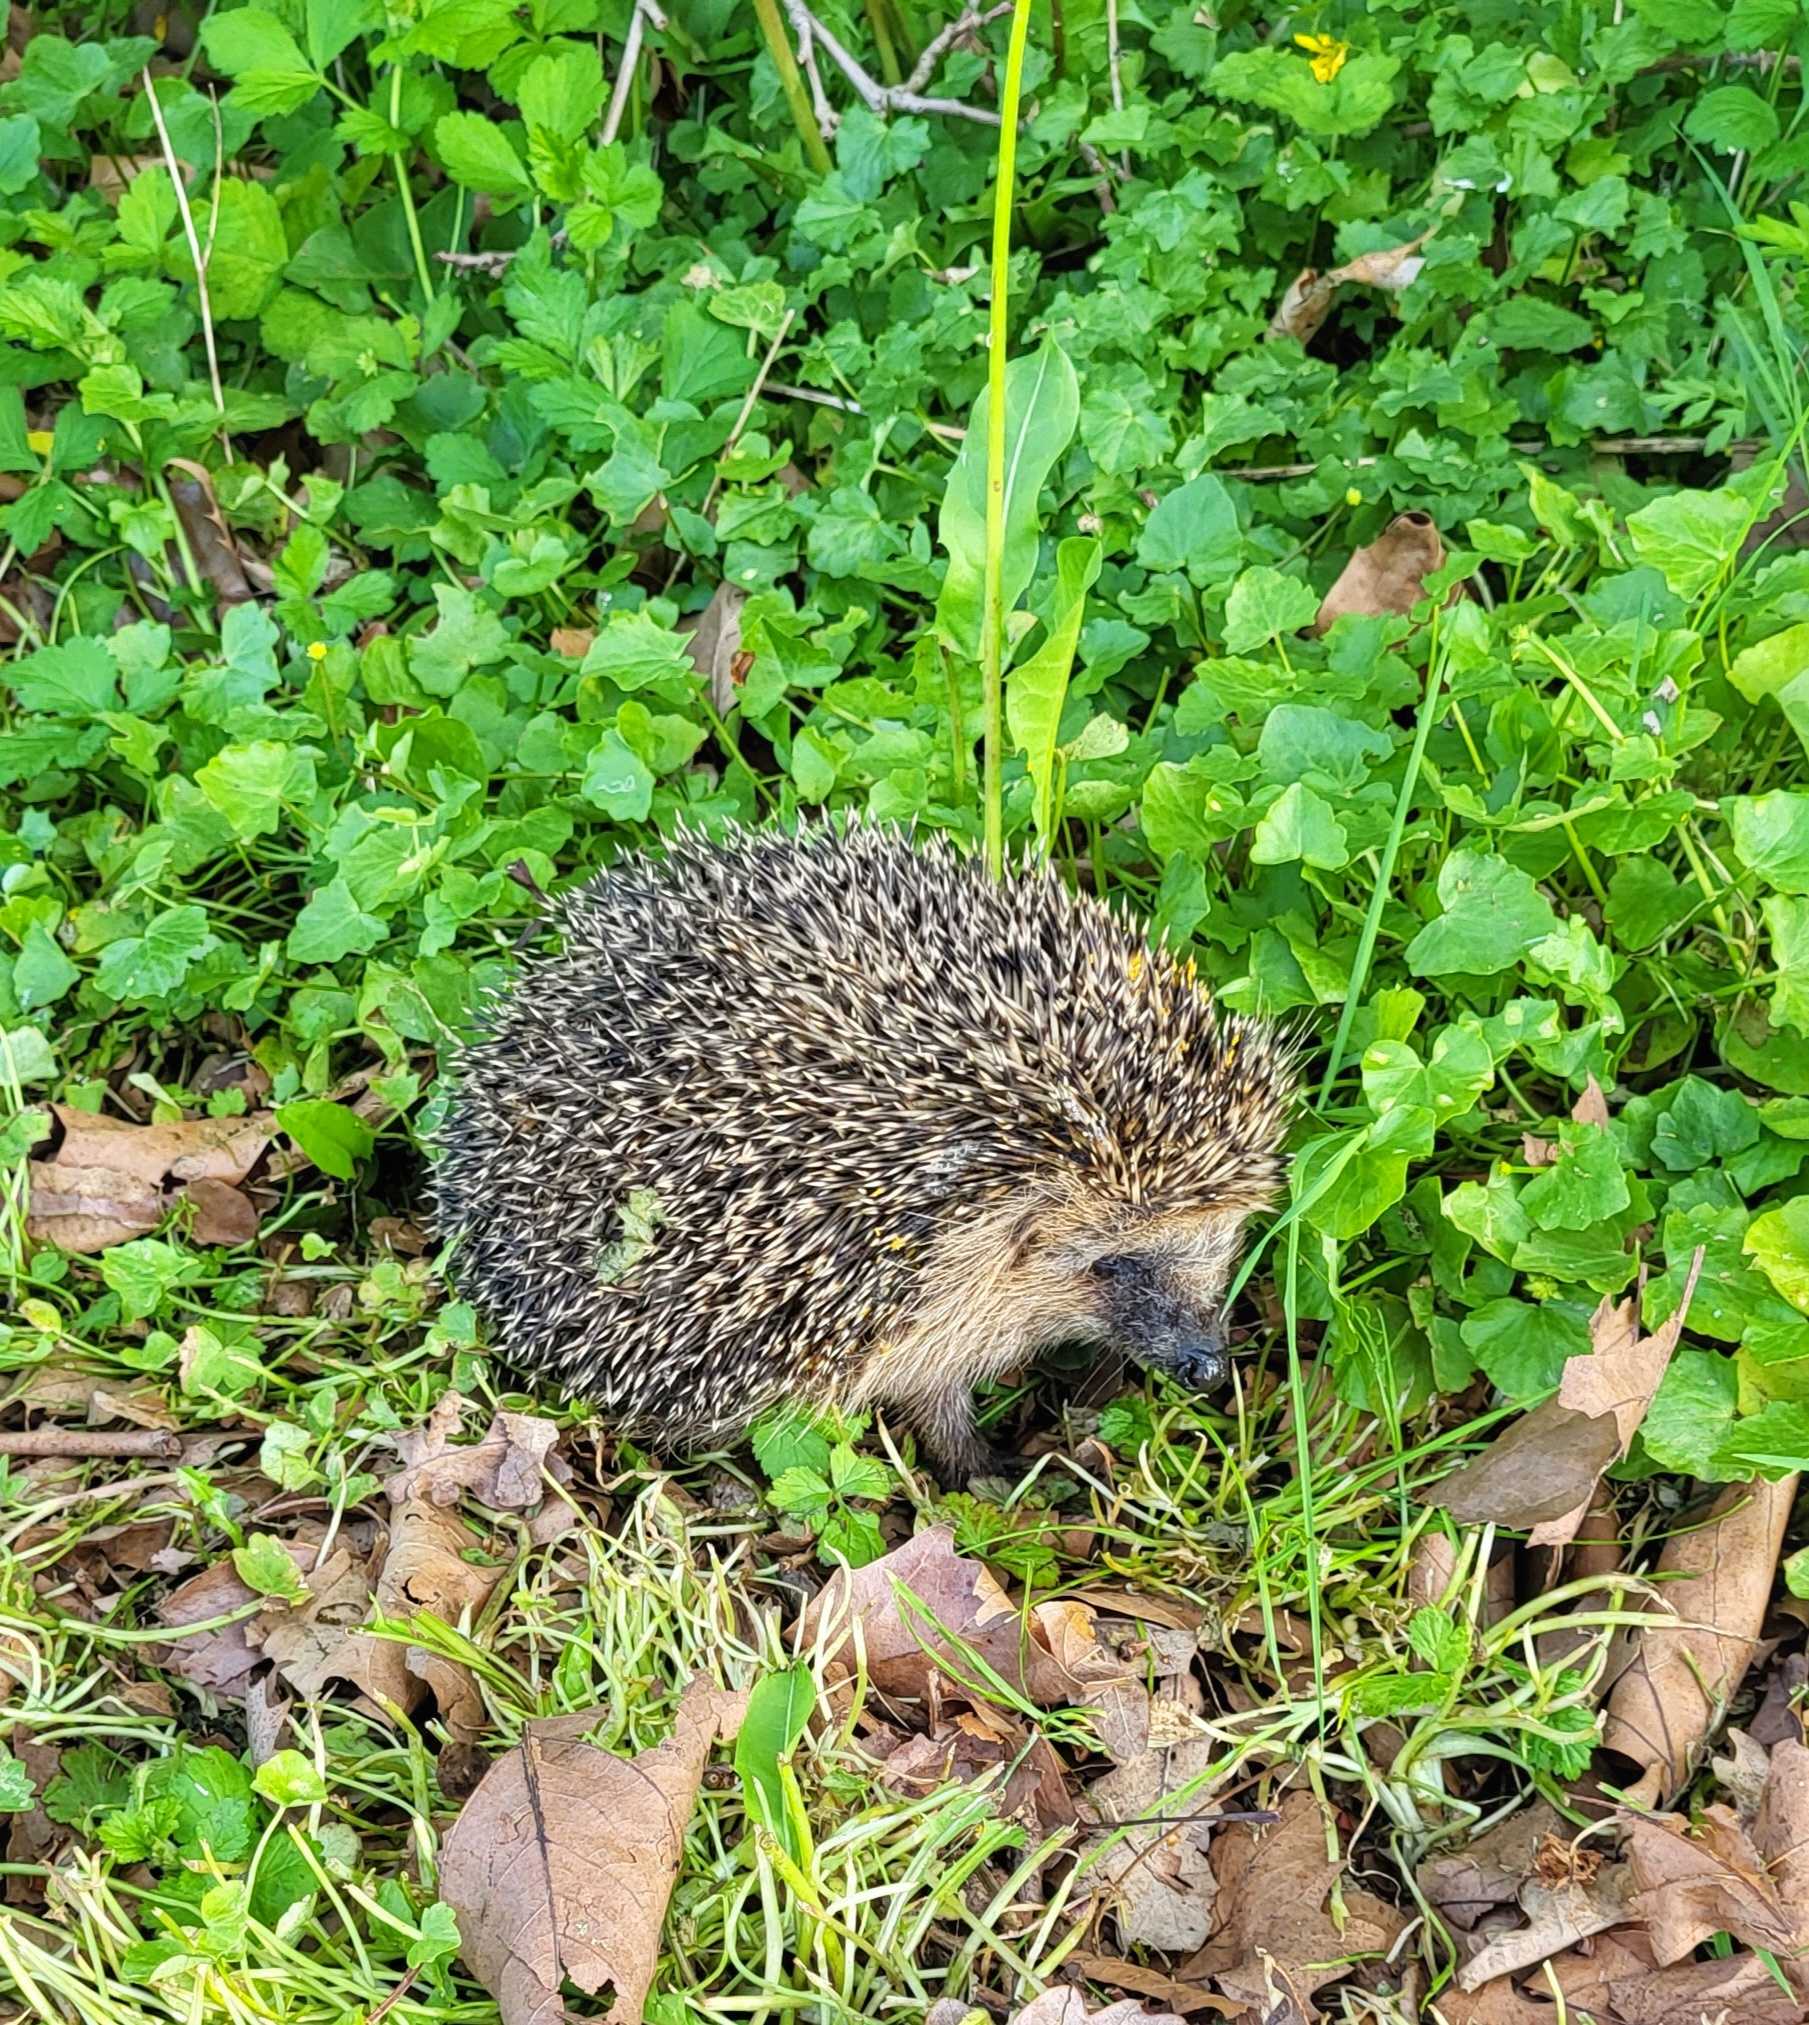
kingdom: Animalia
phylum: Chordata
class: Mammalia
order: Erinaceomorpha
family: Erinaceidae
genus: Erinaceus
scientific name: Erinaceus europaeus
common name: Pindsvin
